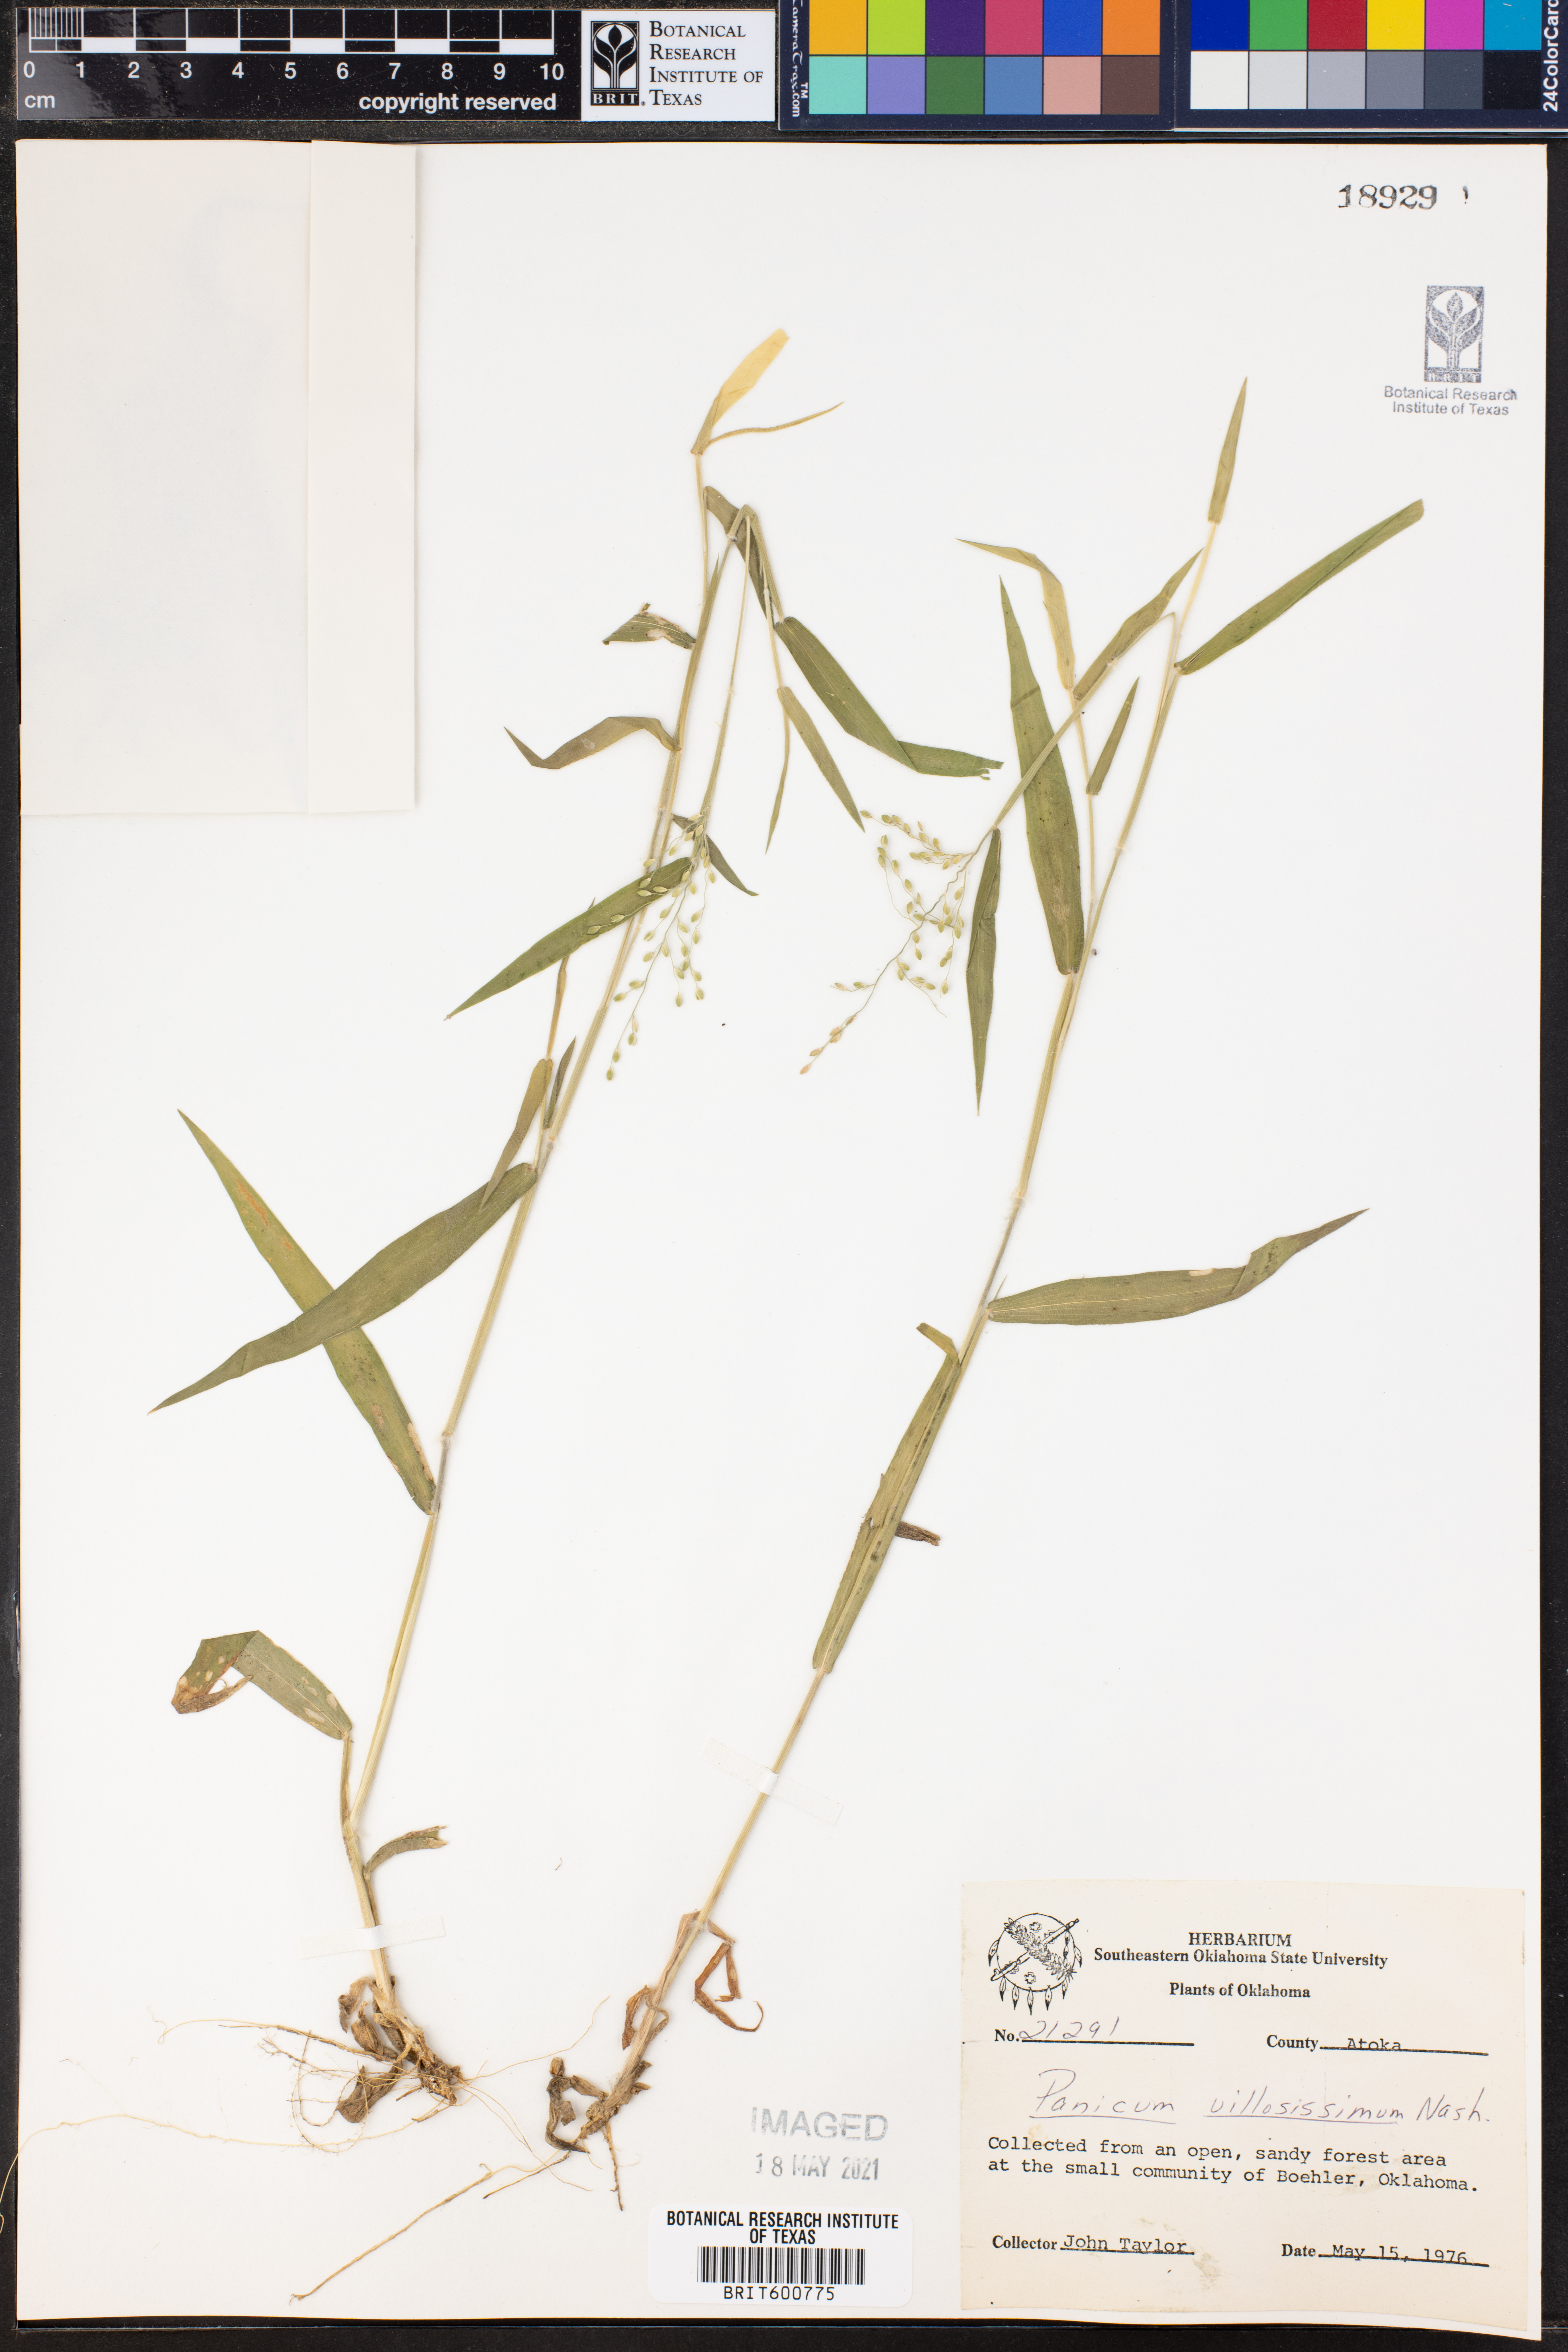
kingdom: Plantae
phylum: Tracheophyta
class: Liliopsida
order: Poales
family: Poaceae
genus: Dichanthelium
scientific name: Dichanthelium villosissimum
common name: White-haired panicgrass
